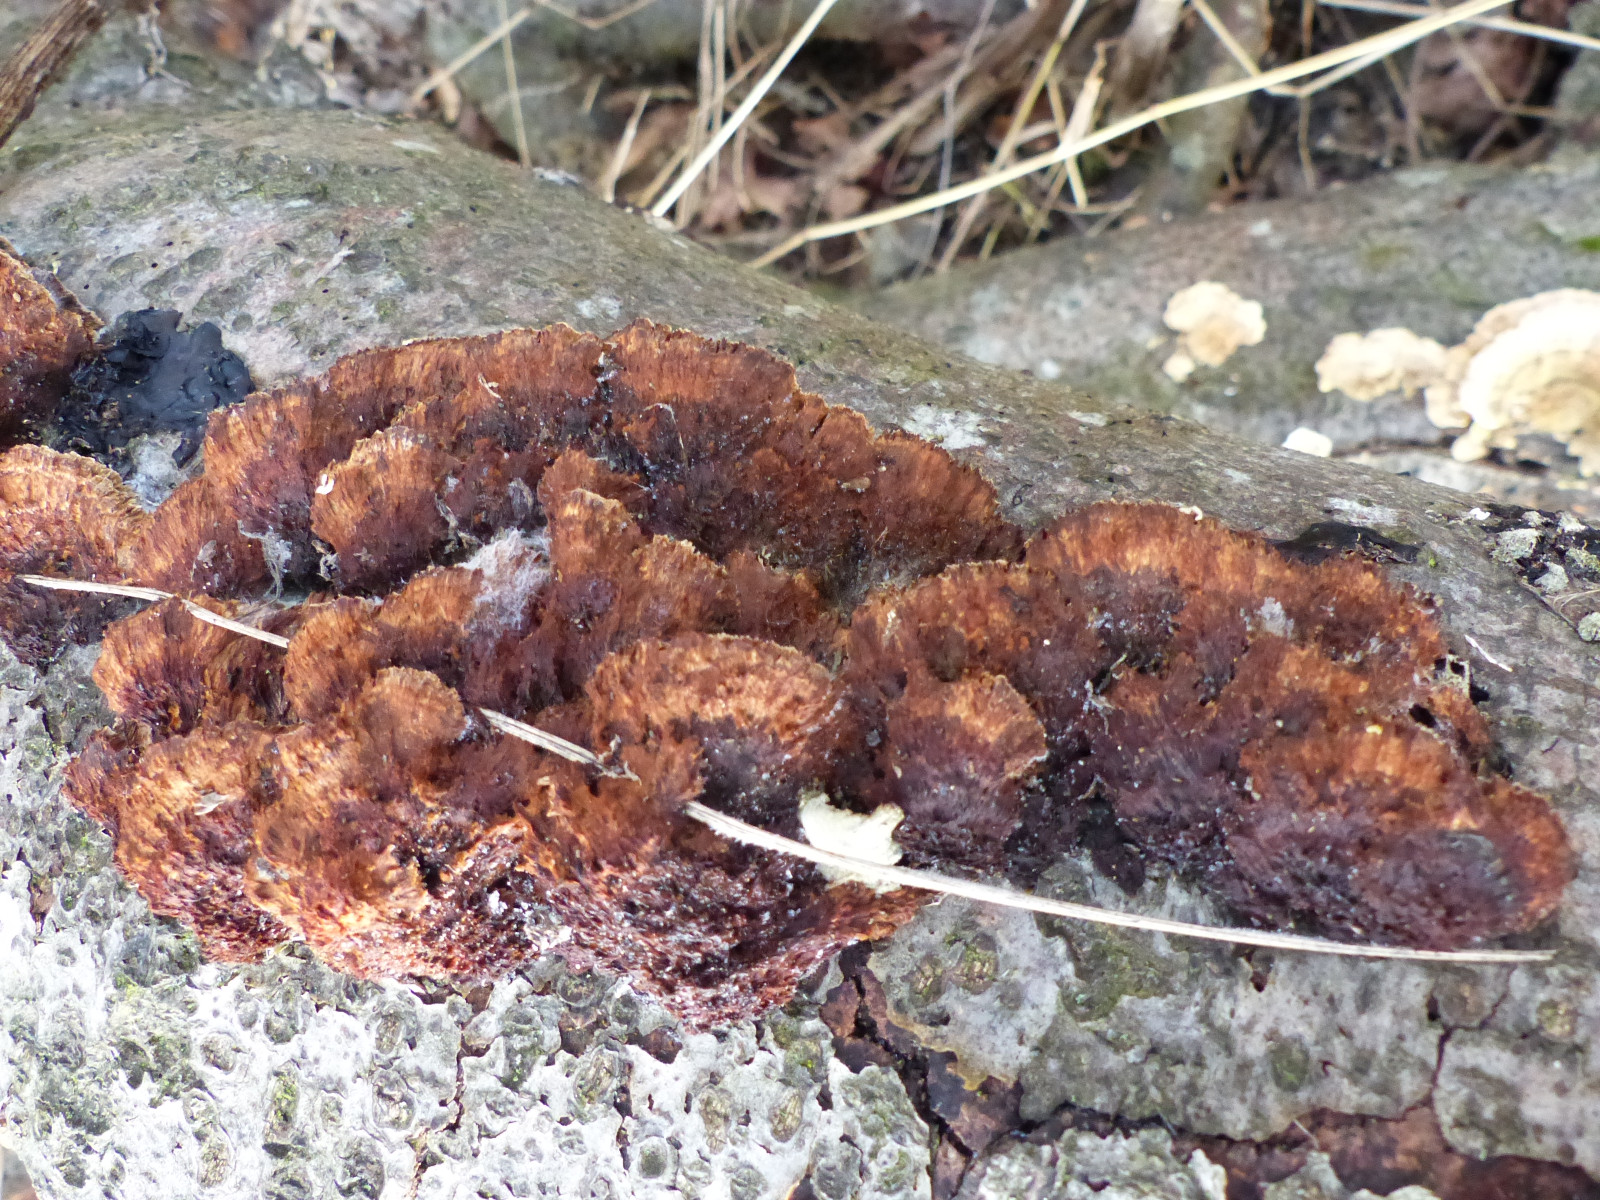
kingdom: Fungi
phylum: Basidiomycota
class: Agaricomycetes
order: Hymenochaetales
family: Hymenochaetaceae
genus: Mensularia
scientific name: Mensularia nodulosa
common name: bøge-spejlporesvamp
